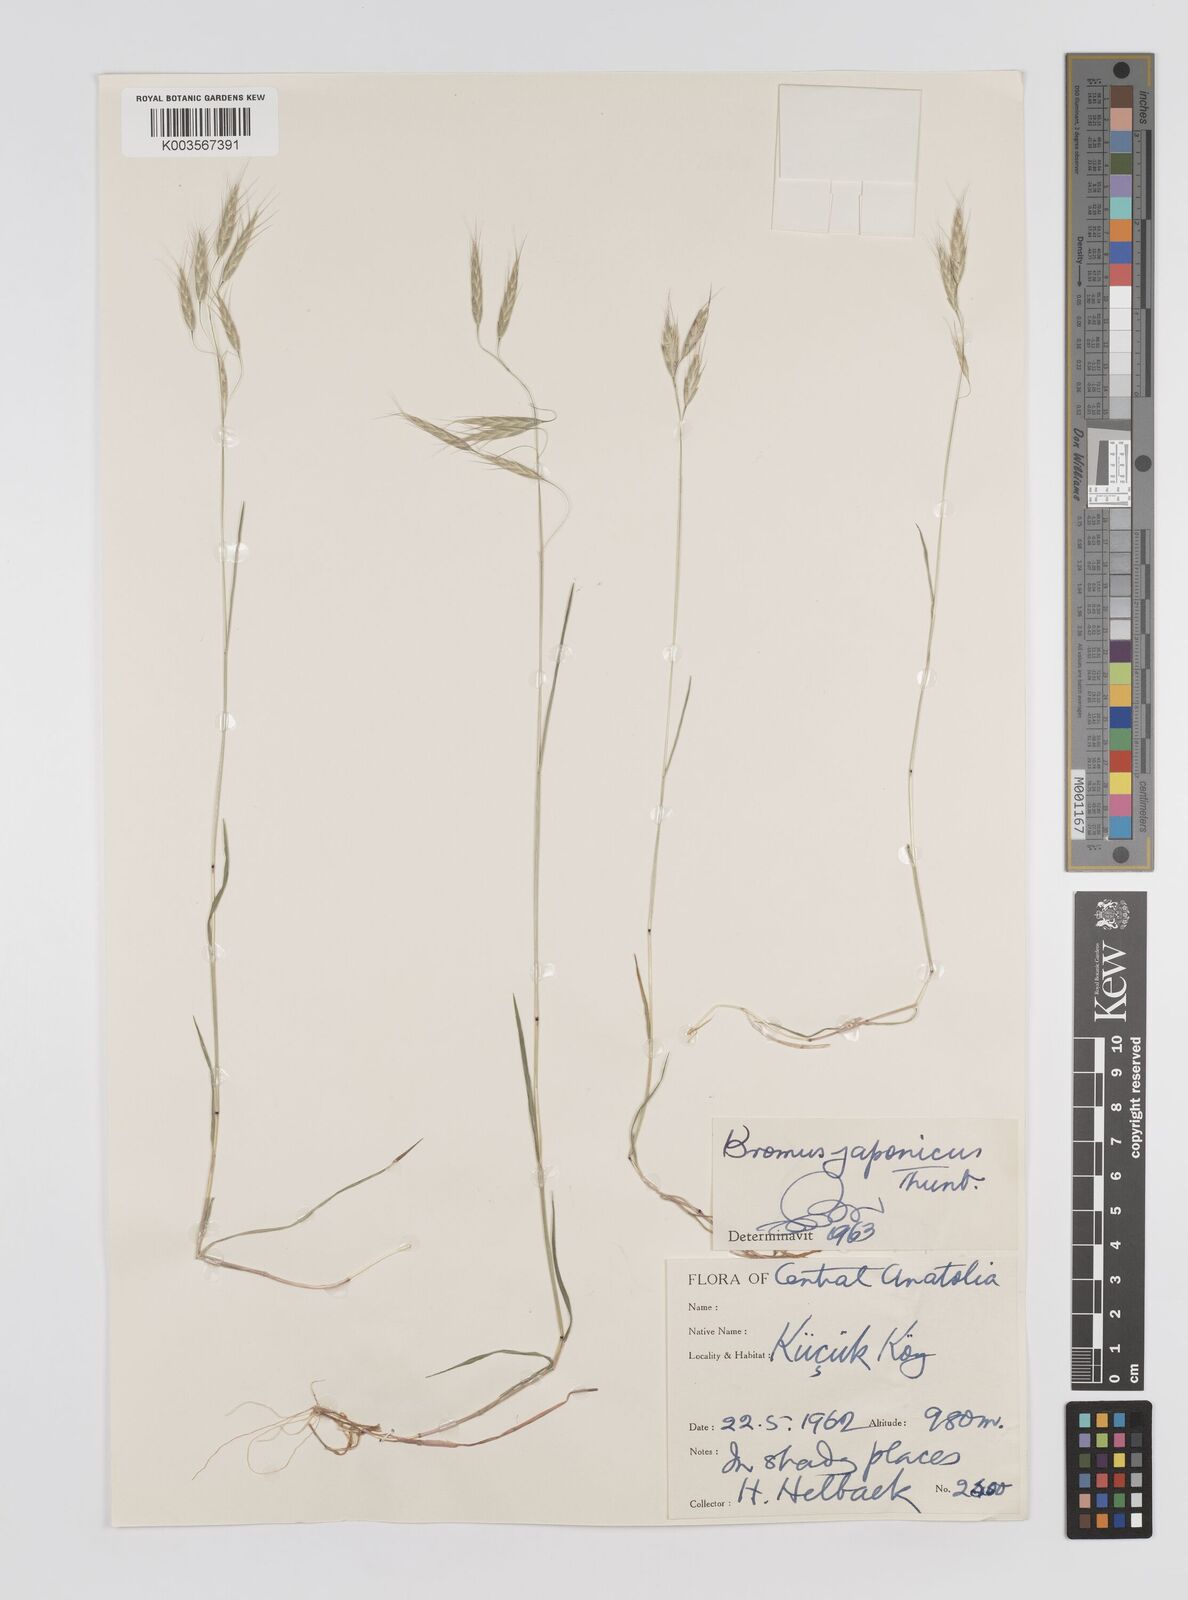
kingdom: Plantae
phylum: Tracheophyta
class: Liliopsida
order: Poales
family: Poaceae
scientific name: Poaceae
